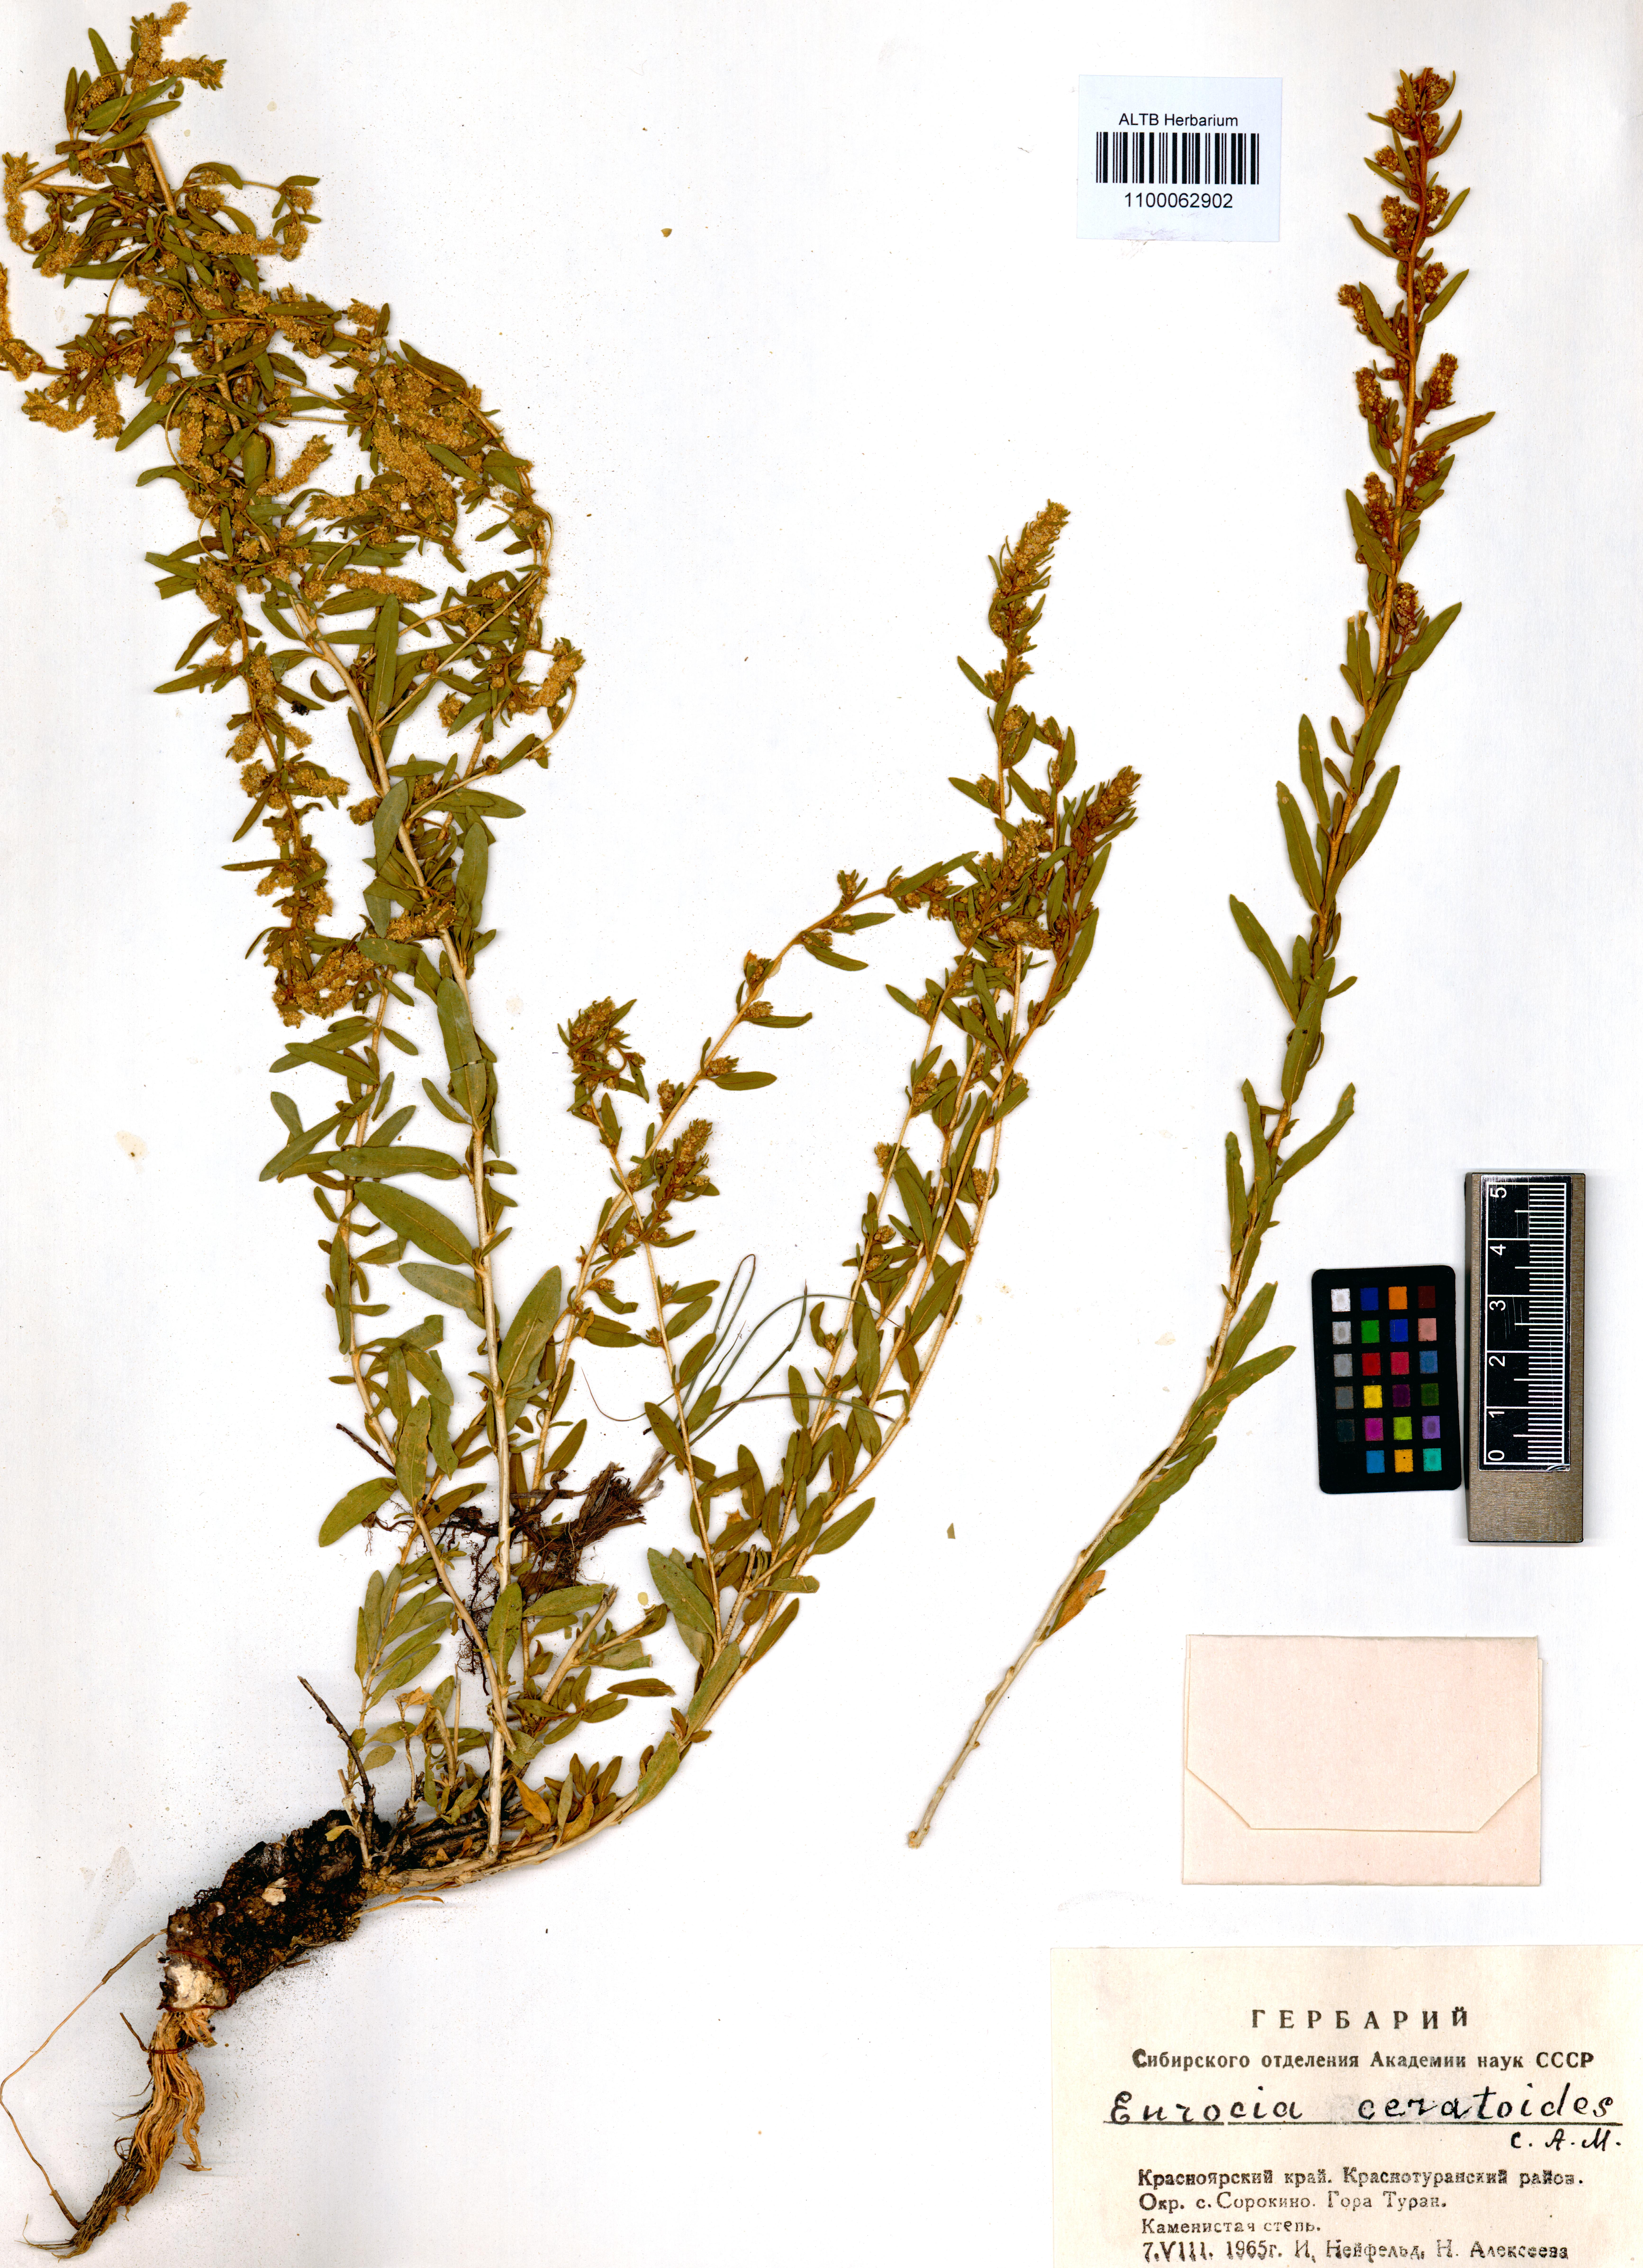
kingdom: Plantae
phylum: Tracheophyta
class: Magnoliopsida
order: Caryophyllales
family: Amaranthaceae
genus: Krascheninnikovia
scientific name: Krascheninnikovia ceratoides
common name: Pamirian winterfat
